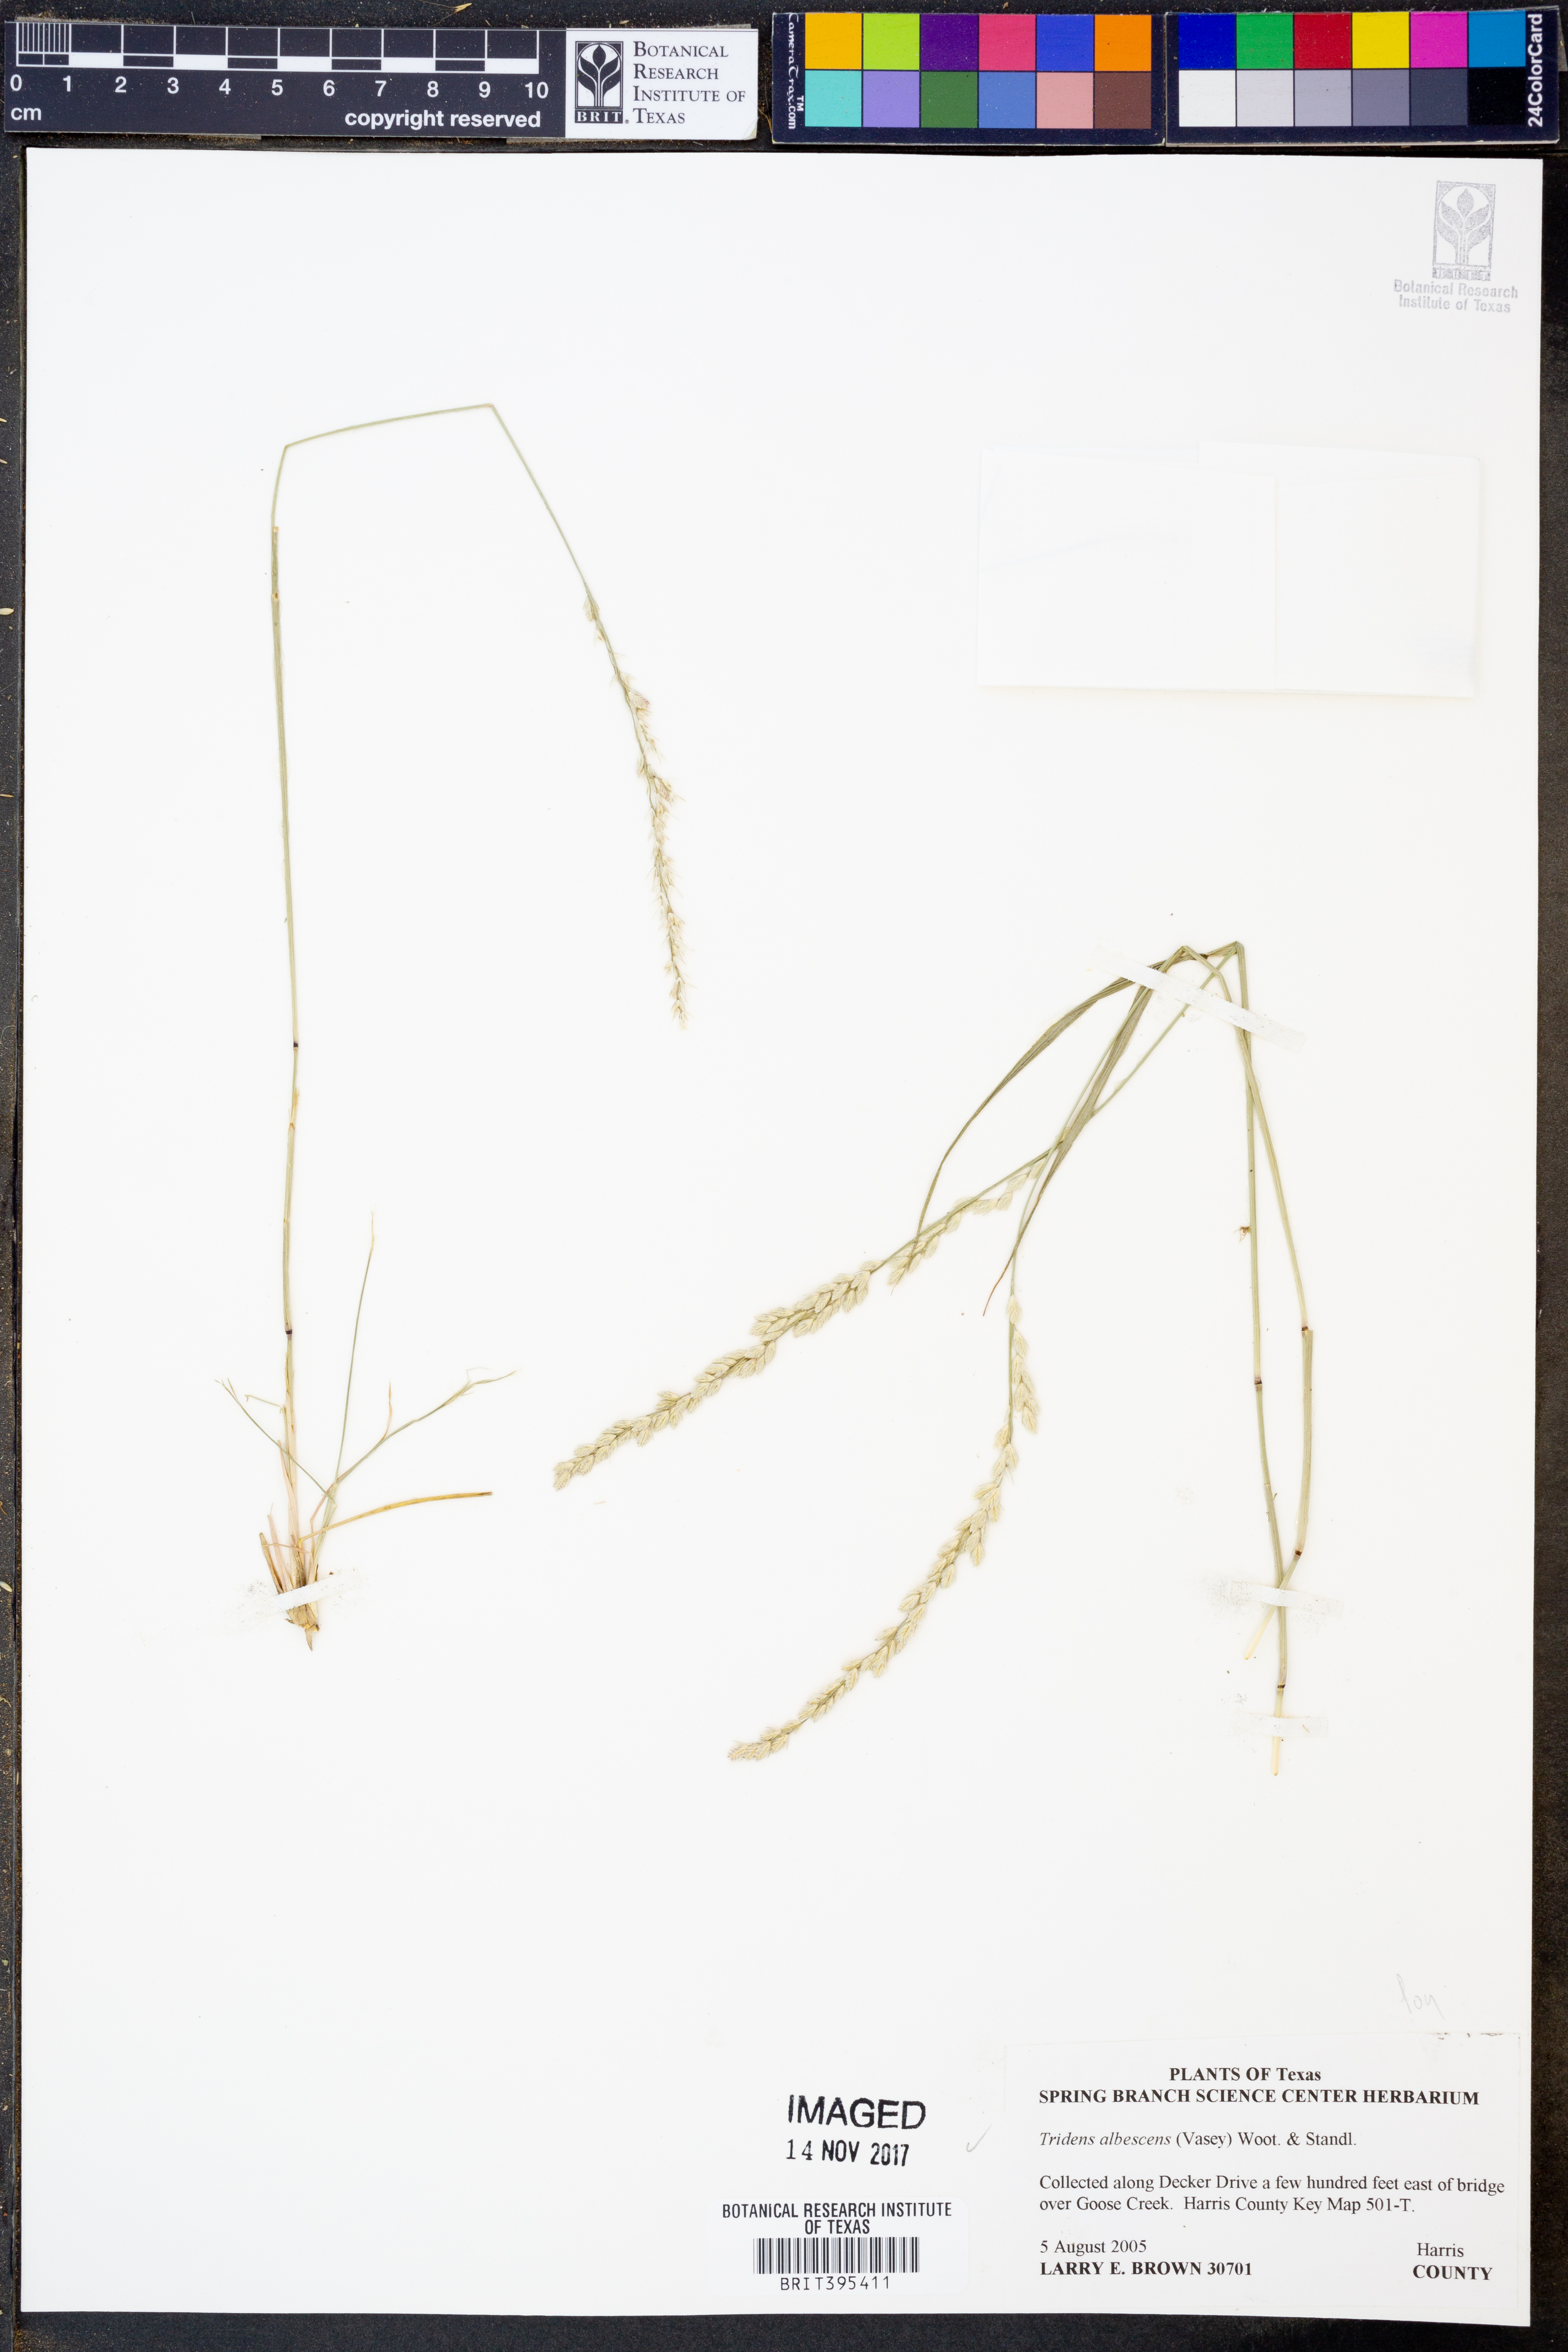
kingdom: Plantae
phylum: Tracheophyta
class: Liliopsida
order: Poales
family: Poaceae
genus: Tridens
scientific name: Tridens albescens
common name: White tridens
